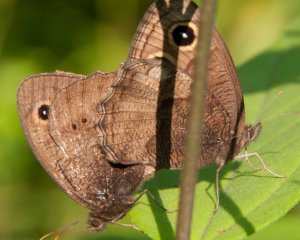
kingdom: Animalia
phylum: Arthropoda
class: Insecta
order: Lepidoptera
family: Nymphalidae
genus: Cercyonis
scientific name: Cercyonis pegala
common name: Common Wood-Nymph
